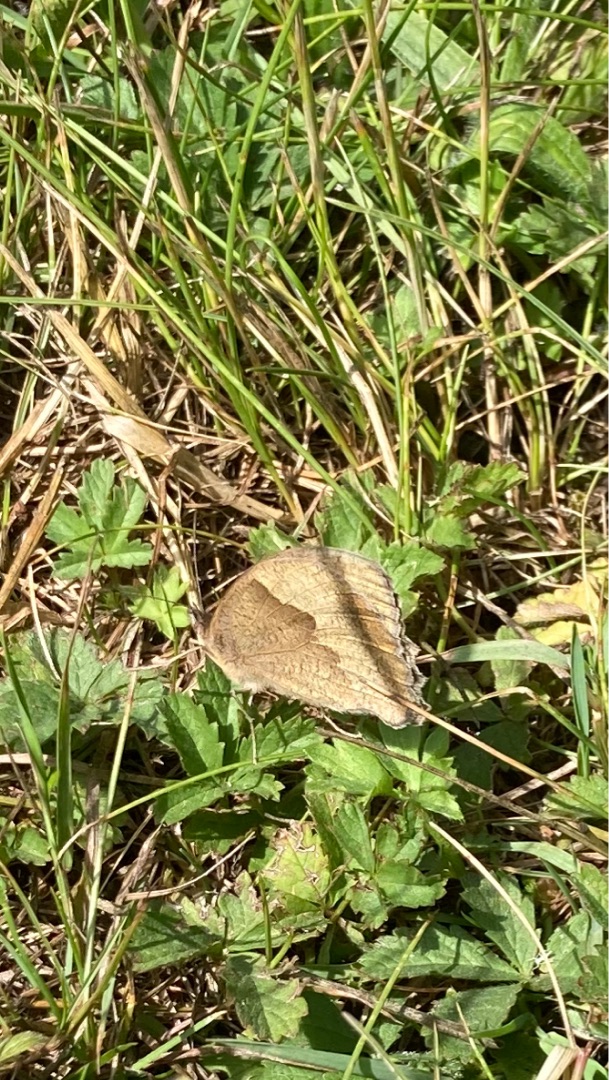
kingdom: Animalia
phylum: Arthropoda
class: Insecta
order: Lepidoptera
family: Nymphalidae
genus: Maniola
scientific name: Maniola jurtina
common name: Græsrandøje
